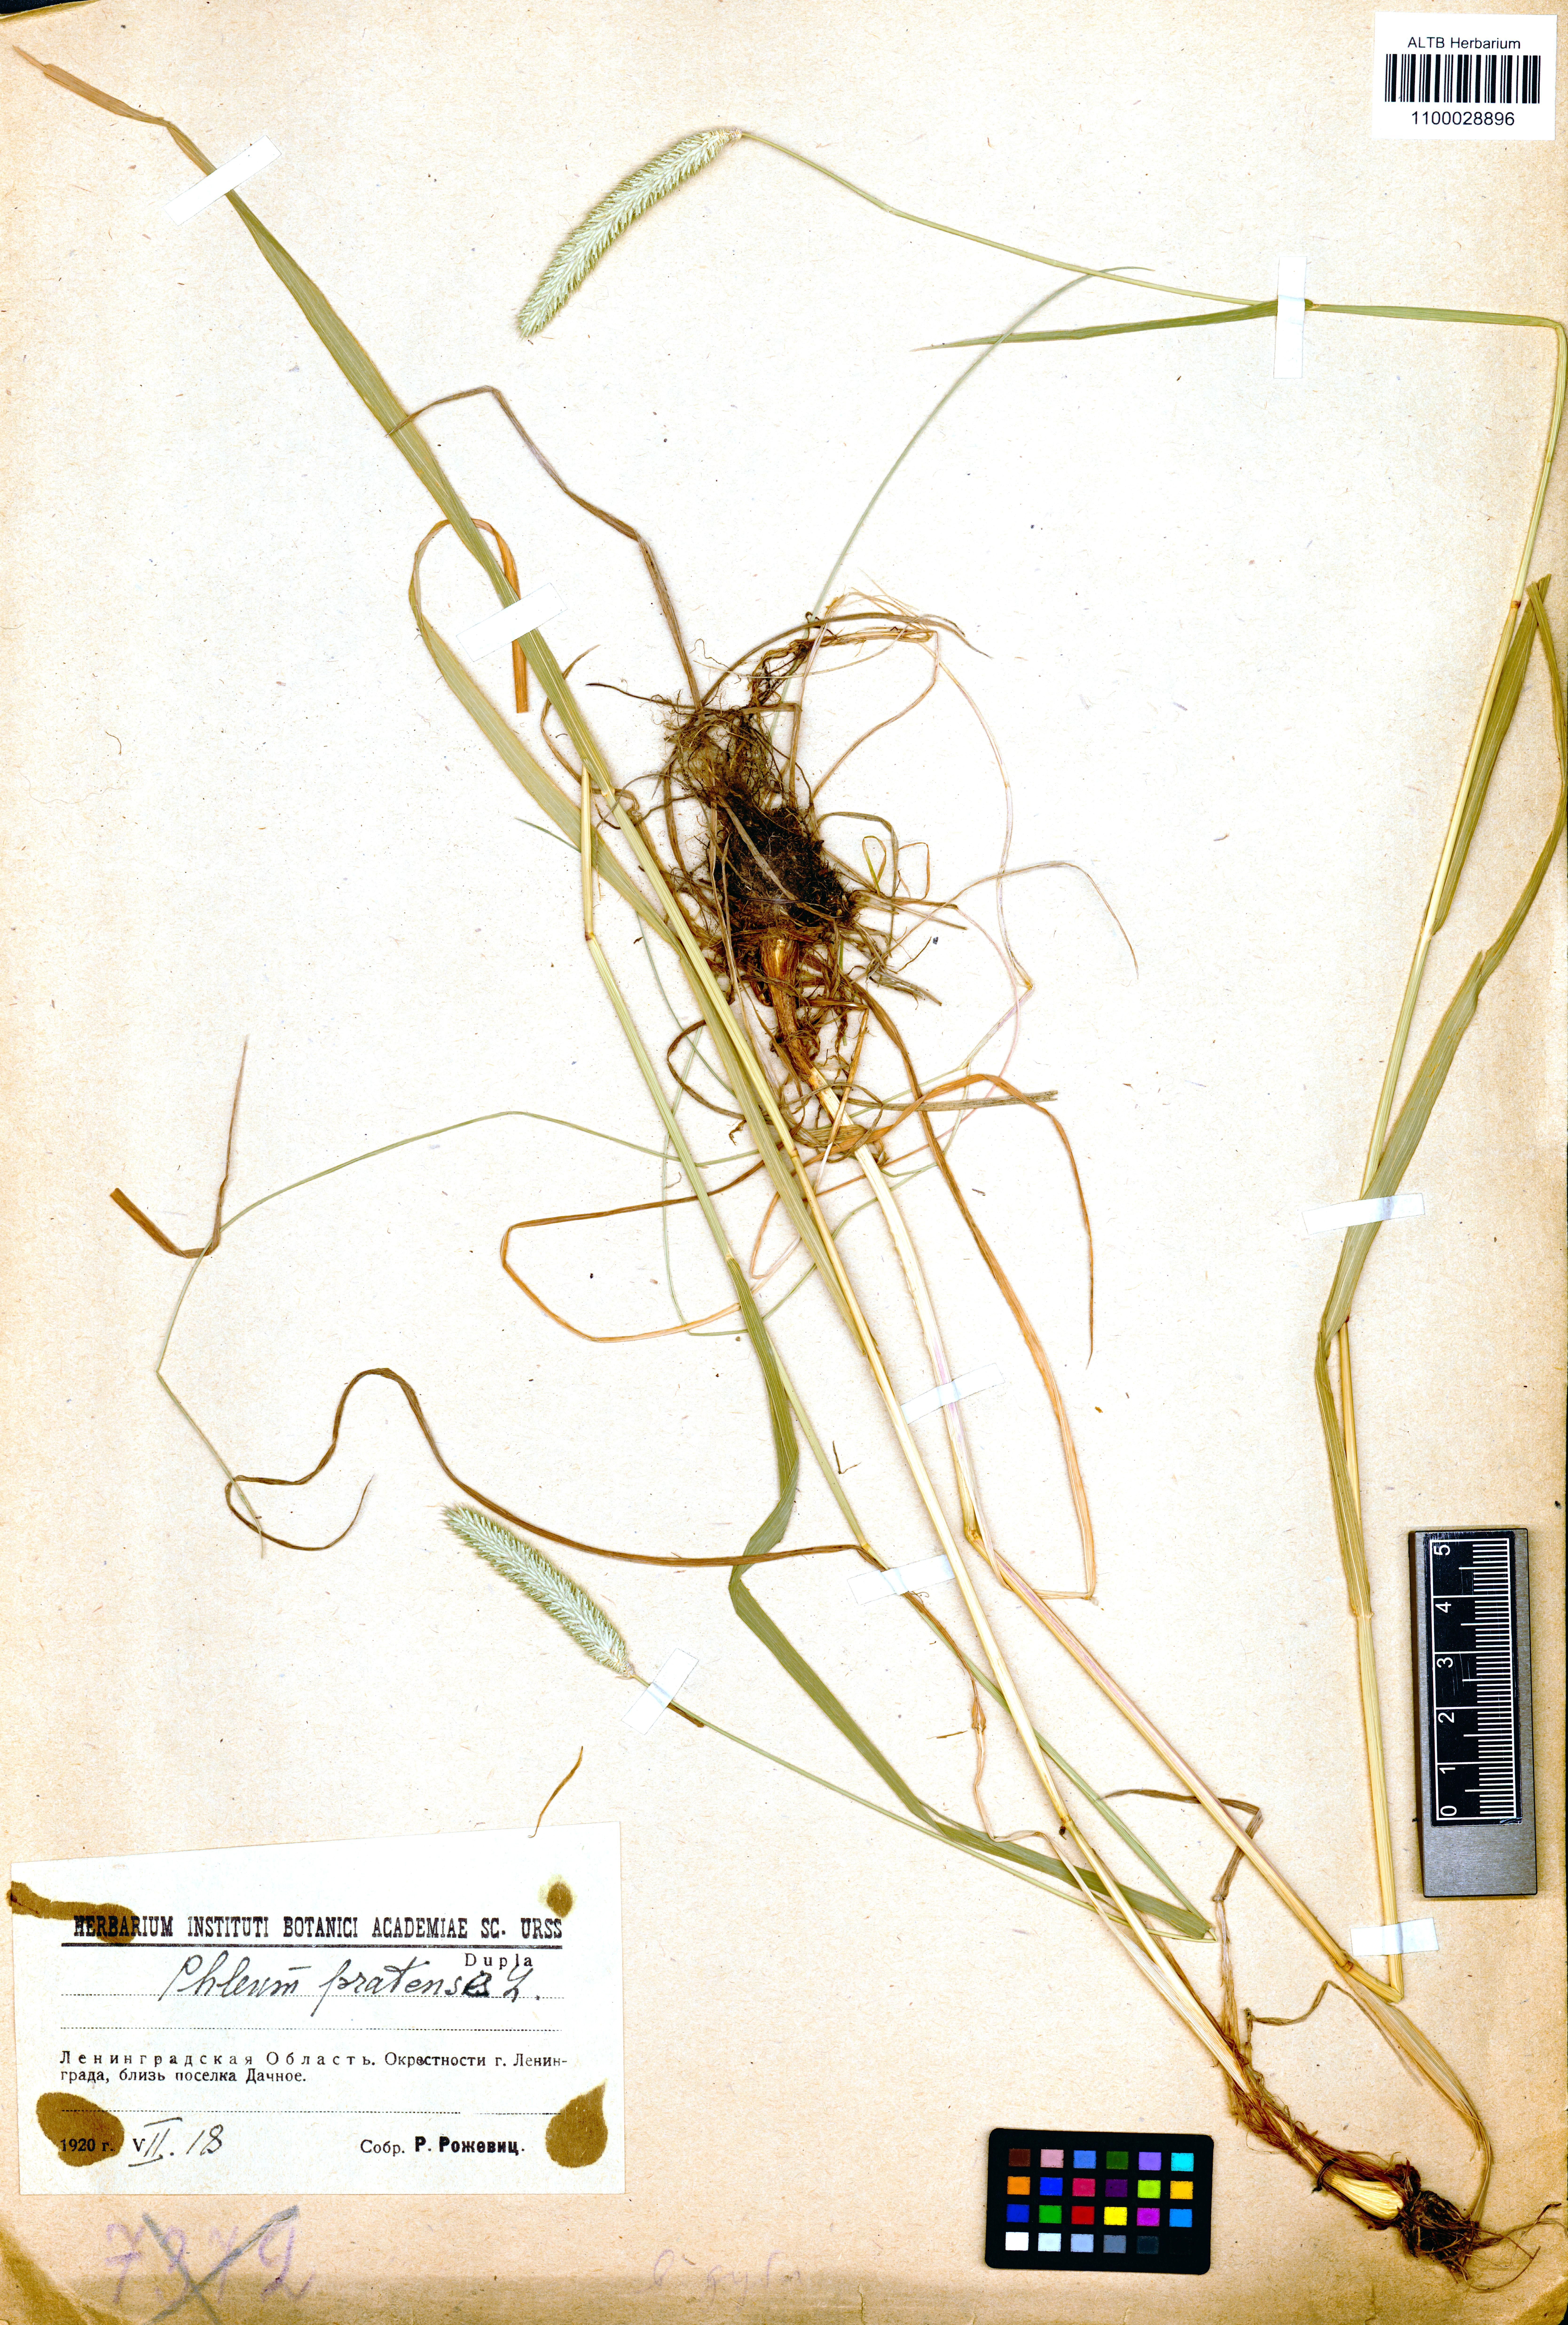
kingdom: Plantae
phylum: Tracheophyta
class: Liliopsida
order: Poales
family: Poaceae
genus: Phleum
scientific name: Phleum pratense
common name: Timothy grass
